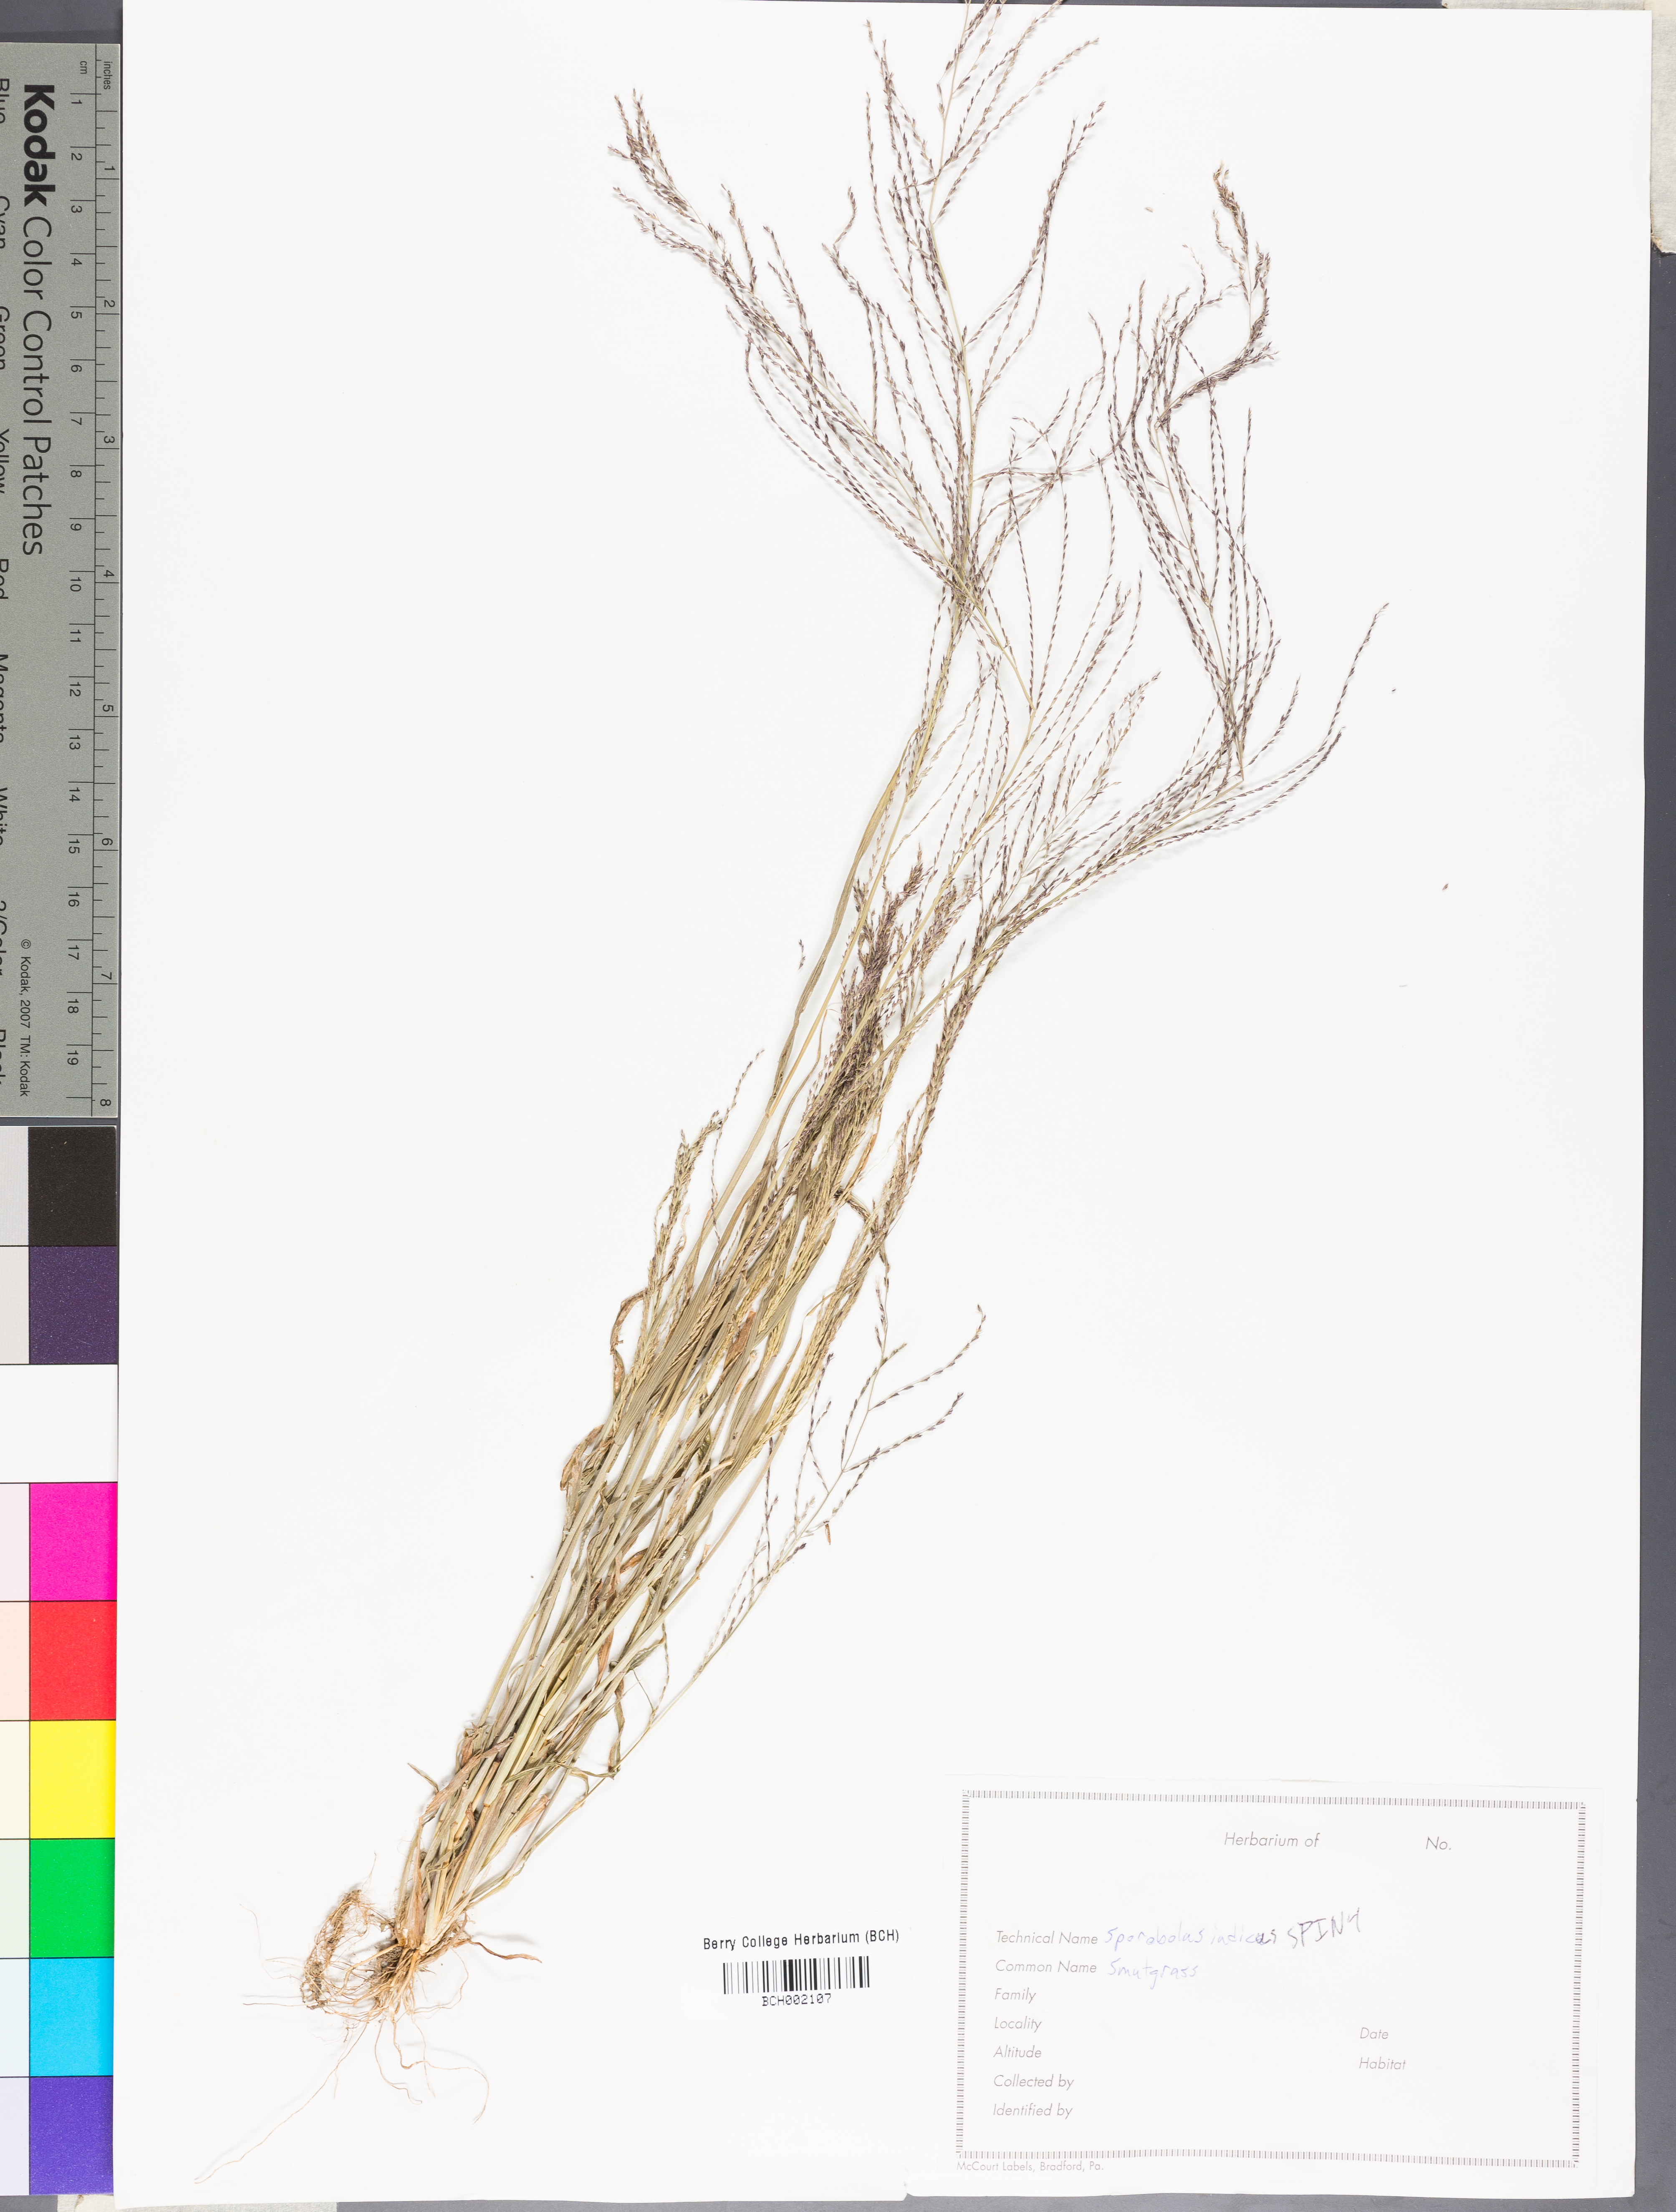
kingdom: Plantae
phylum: Tracheophyta
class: Liliopsida
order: Poales
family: Poaceae
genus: Sporobolus
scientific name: Sporobolus indicus
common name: Smut grass
